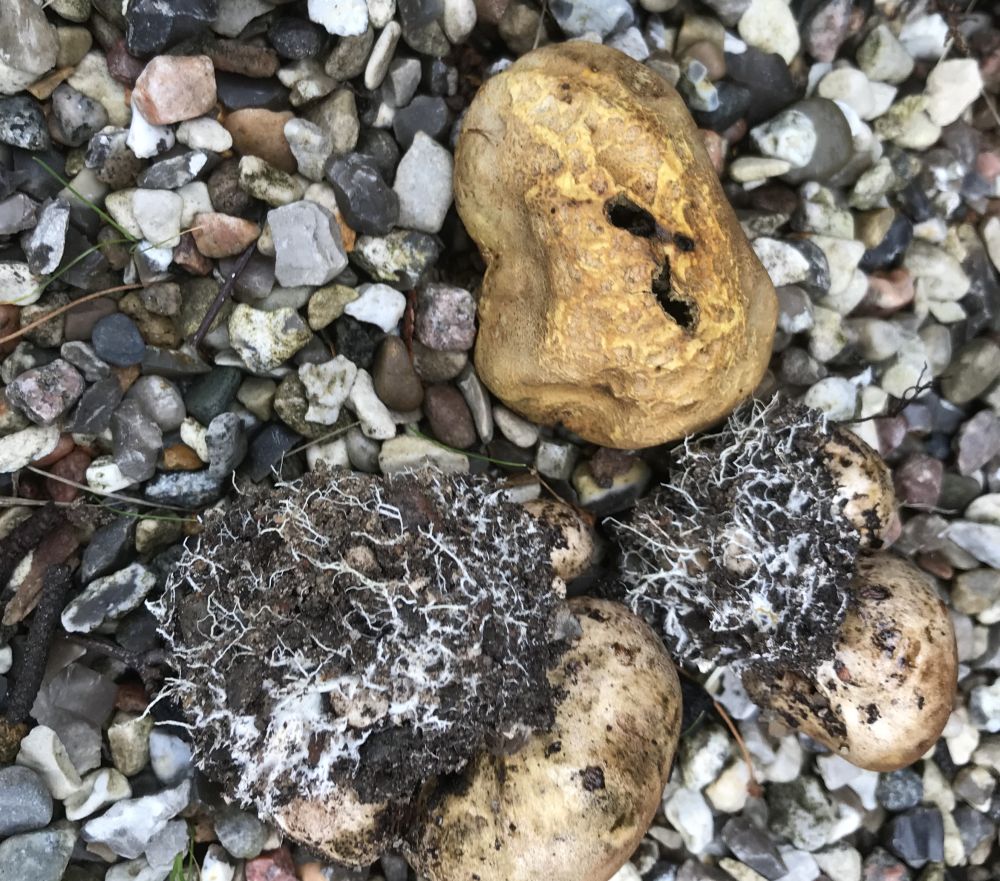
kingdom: Fungi
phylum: Basidiomycota
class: Agaricomycetes
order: Boletales
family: Sclerodermataceae
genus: Scleroderma
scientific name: Scleroderma verrucosum
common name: stilket bruskbold
